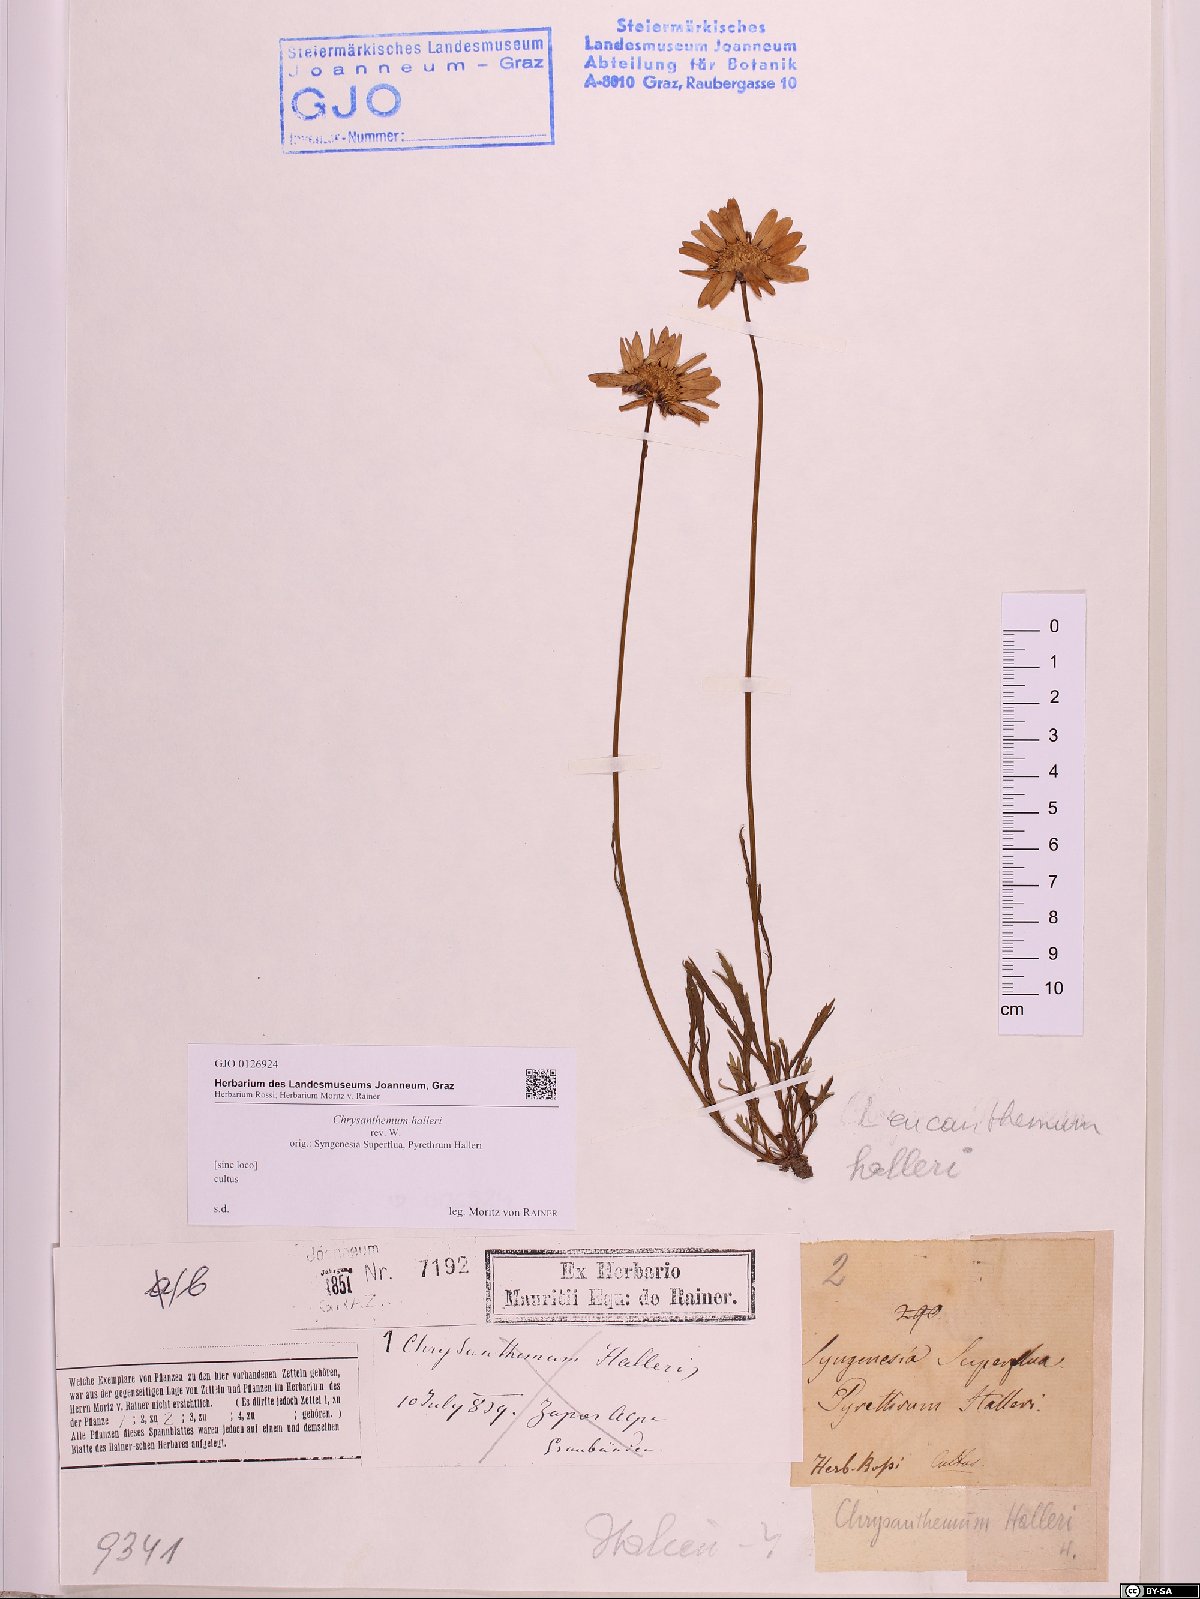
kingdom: Plantae
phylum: Tracheophyta
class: Magnoliopsida
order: Asterales
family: Asteraceae
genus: Leucanthemum
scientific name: Leucanthemum halleri
